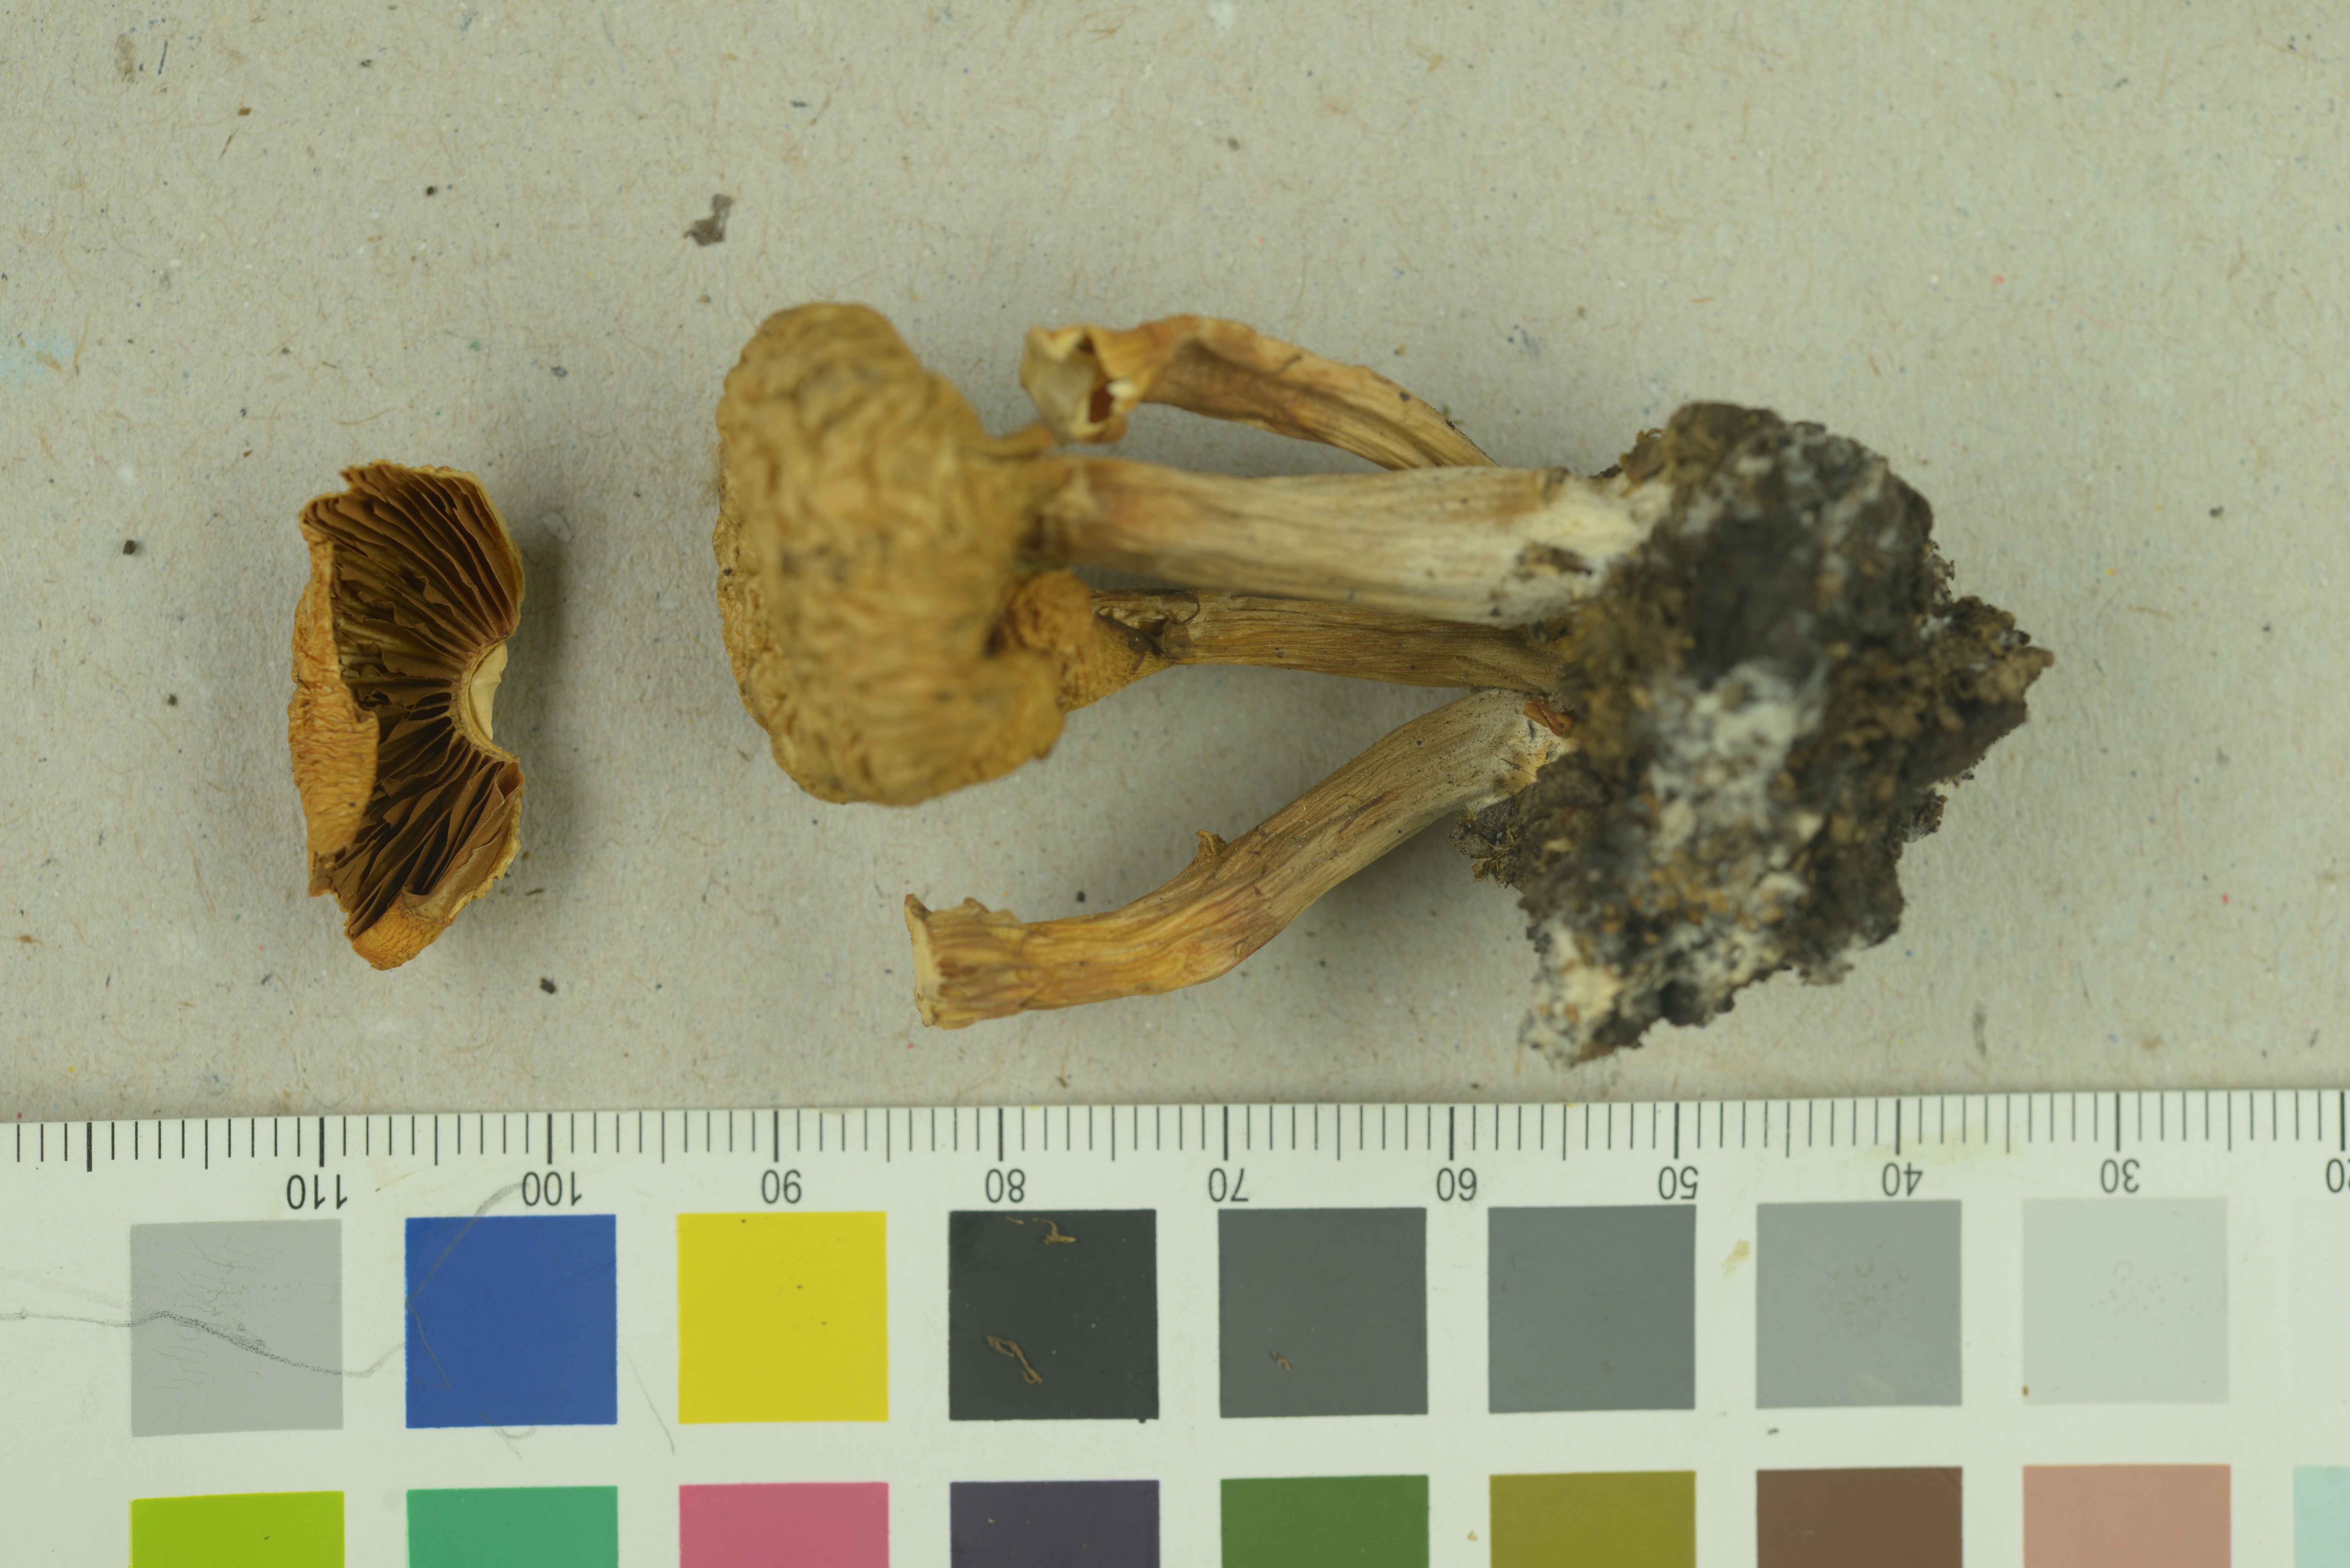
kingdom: Fungi
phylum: Basidiomycota
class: Agaricomycetes
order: Agaricales
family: Hymenogastraceae
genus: Galerina
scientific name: Galerina marginata
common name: Funeral bell
